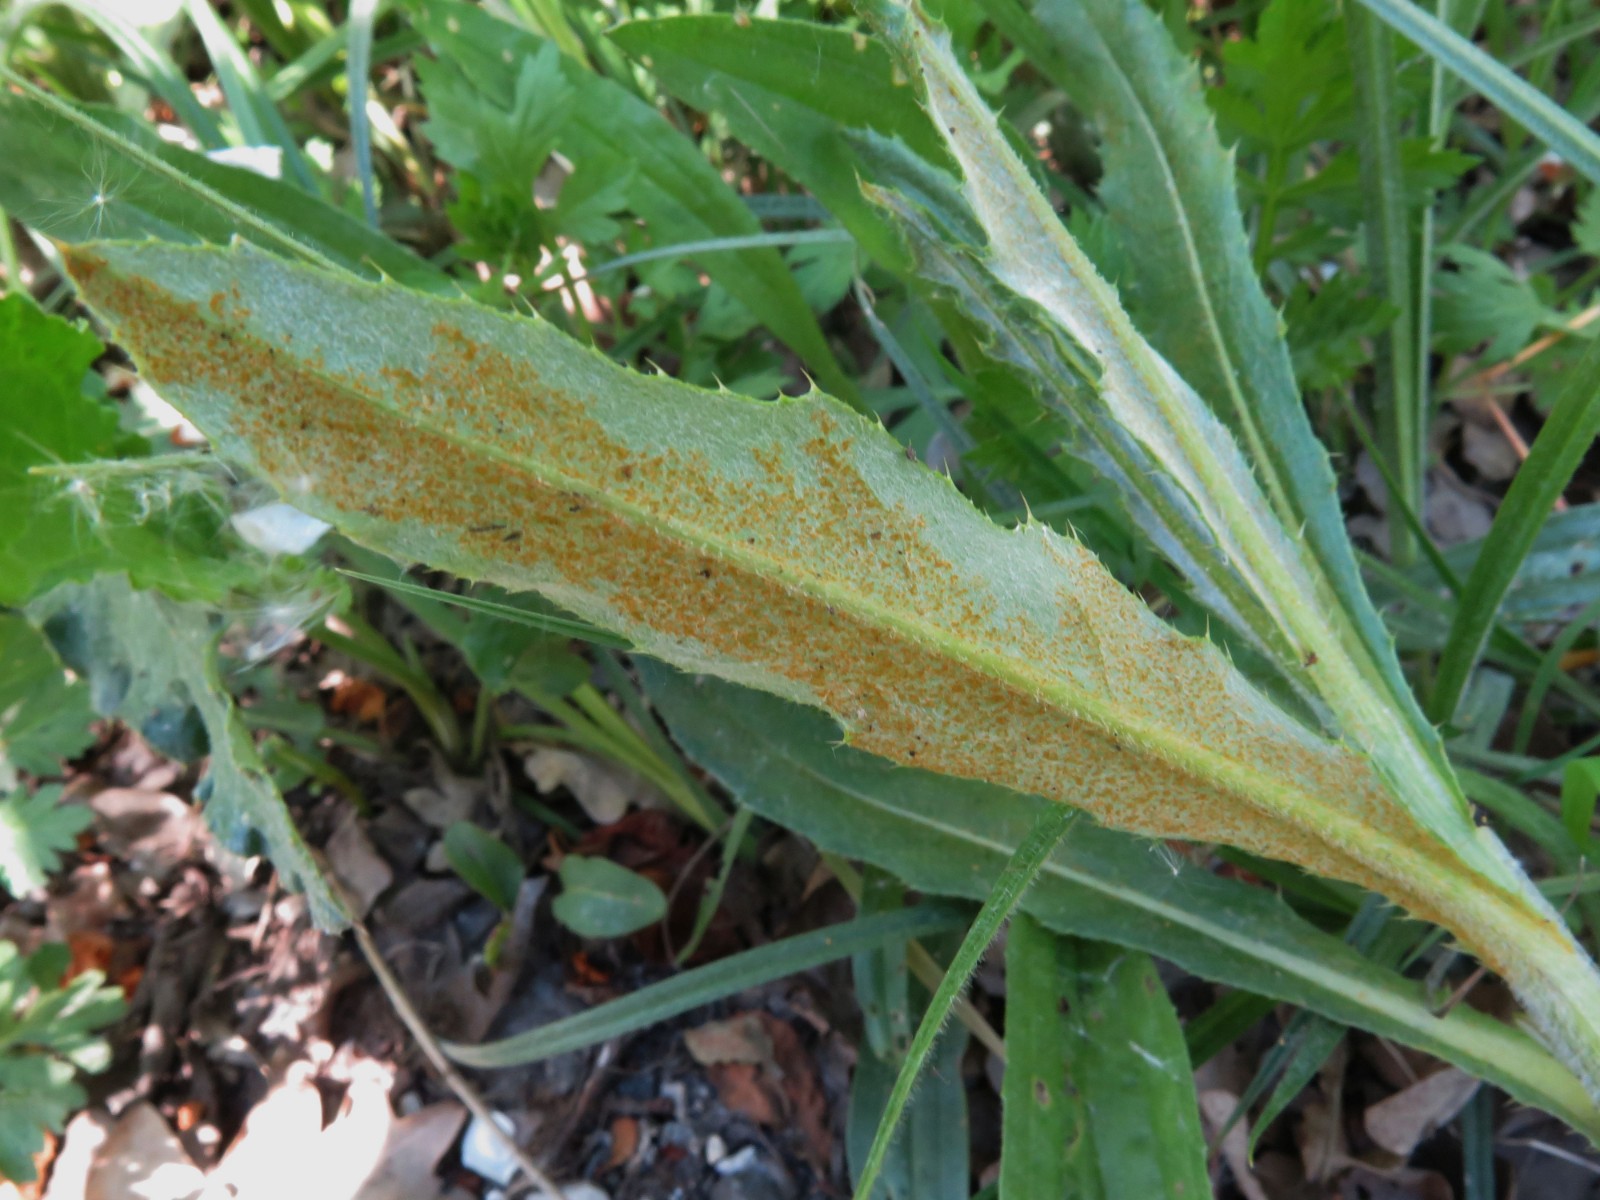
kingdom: Fungi
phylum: Basidiomycota
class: Pucciniomycetes
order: Pucciniales
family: Pucciniaceae
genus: Puccinia
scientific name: Puccinia suaveolens
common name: tidsel-tvecellerust
